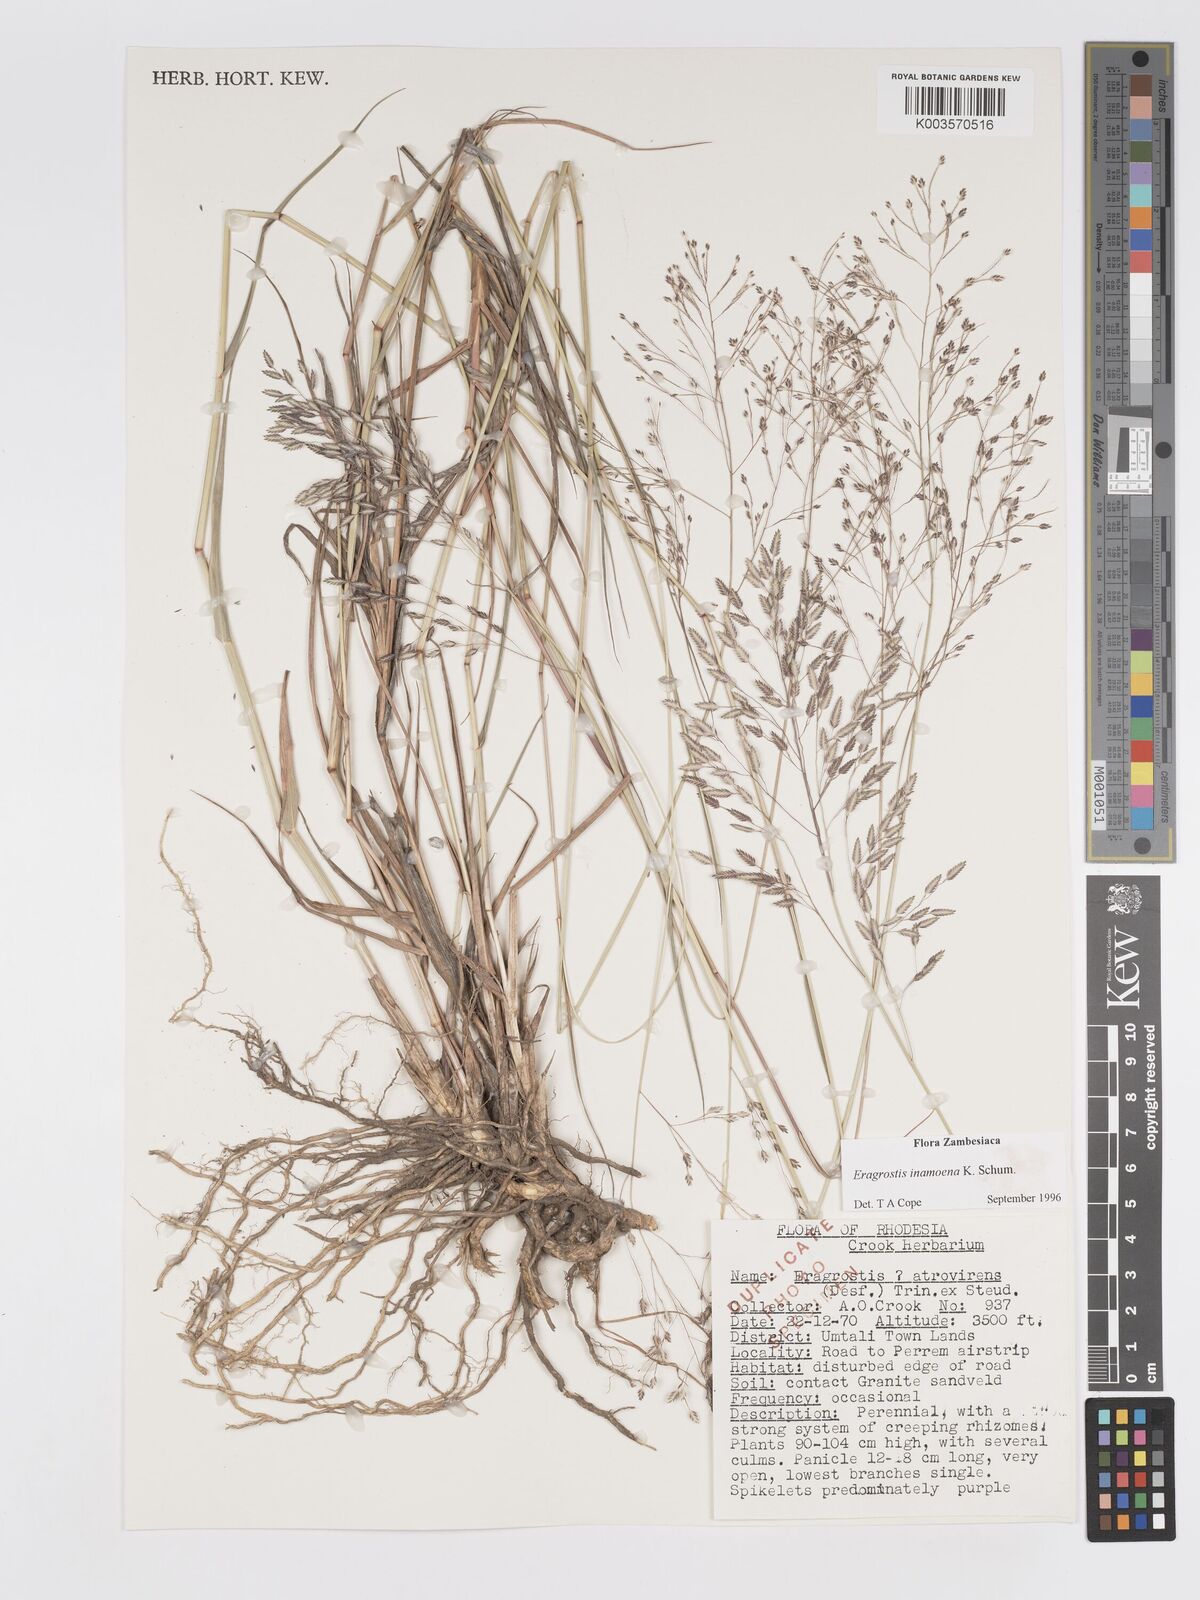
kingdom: Plantae
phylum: Tracheophyta
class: Liliopsida
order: Poales
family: Poaceae
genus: Eragrostis
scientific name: Eragrostis inamoena
